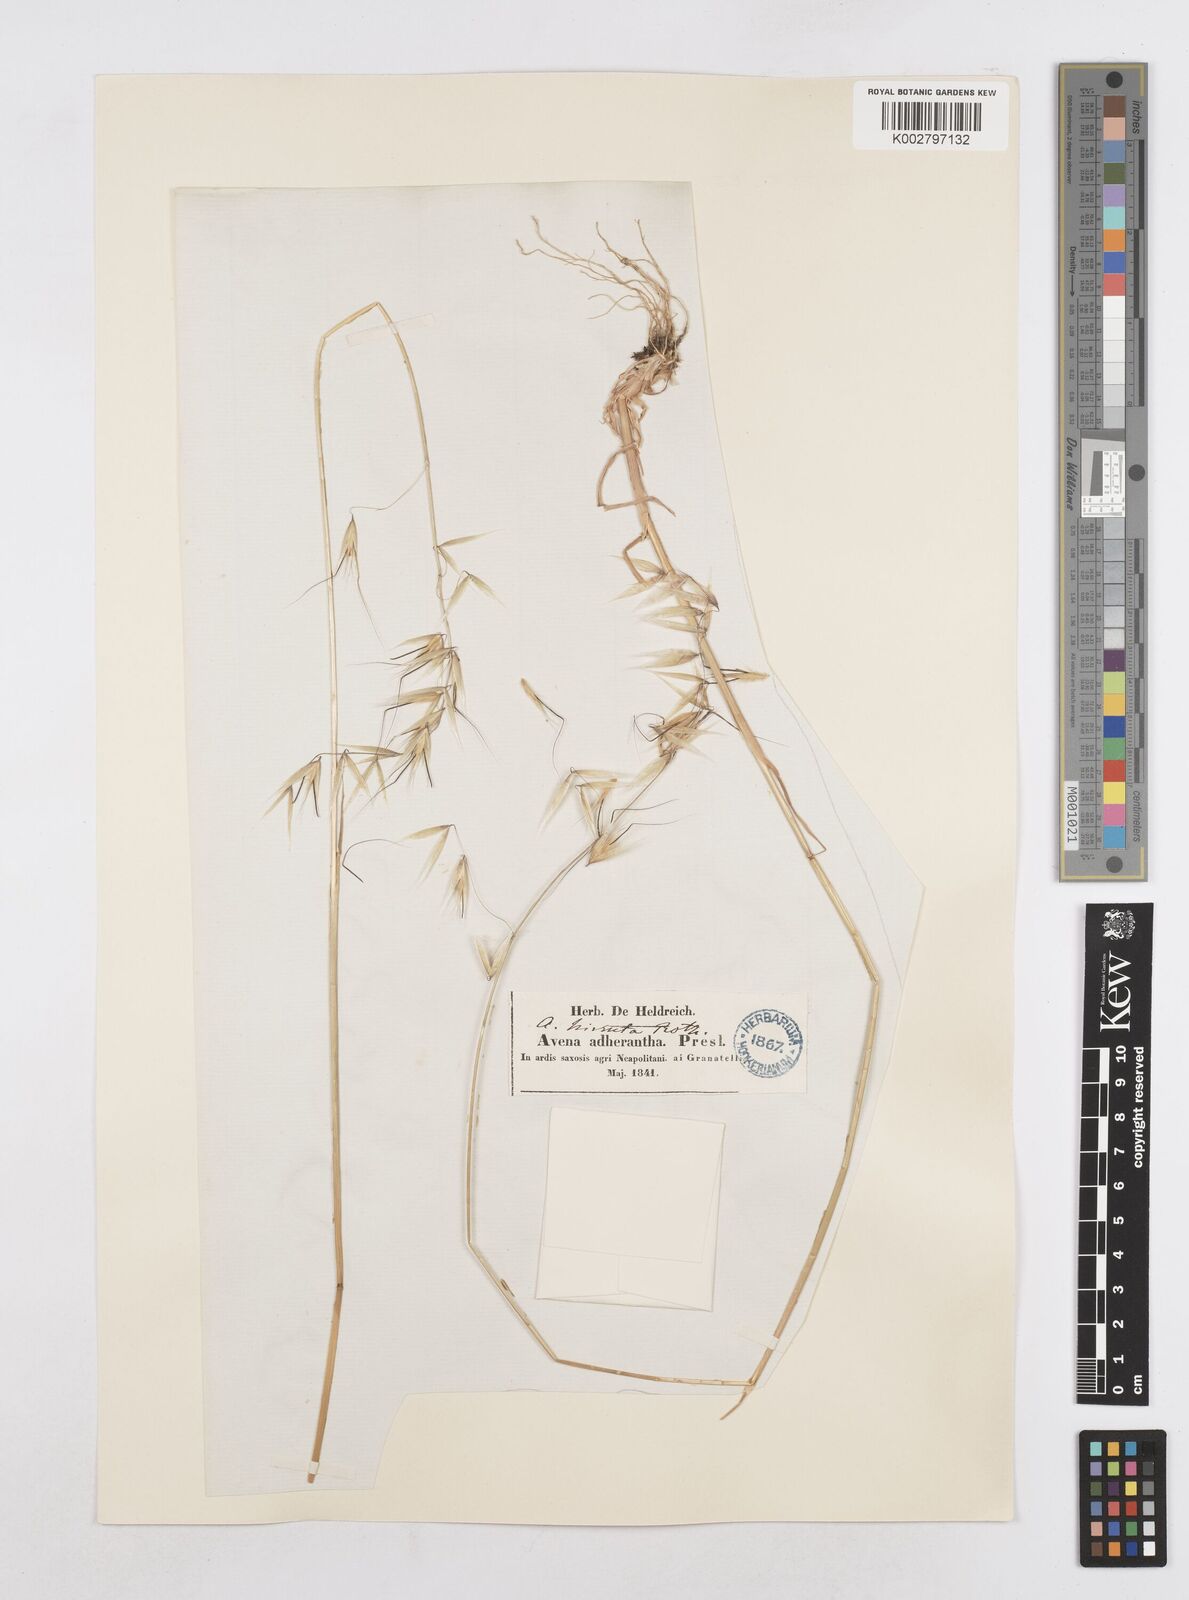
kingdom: Plantae
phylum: Tracheophyta
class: Liliopsida
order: Poales
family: Poaceae
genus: Avena
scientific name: Avena
